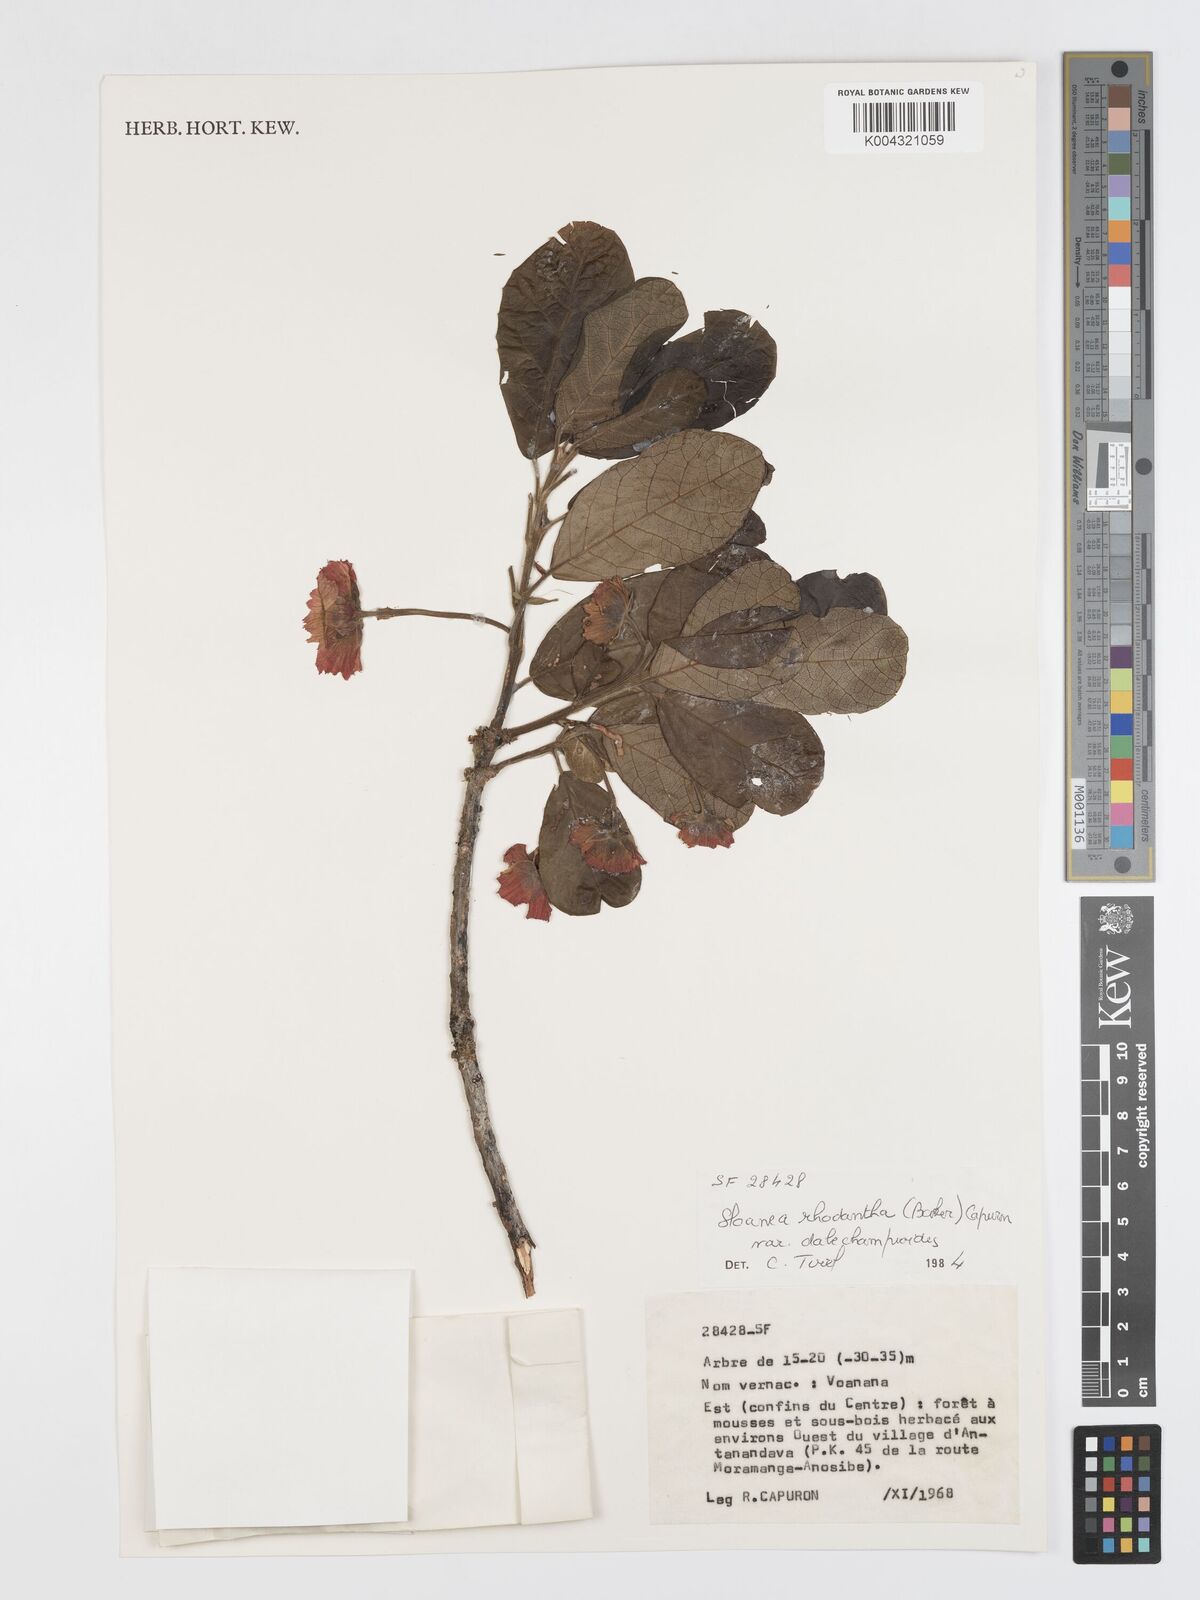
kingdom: Plantae
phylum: Tracheophyta
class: Magnoliopsida
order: Oxalidales
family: Elaeocarpaceae
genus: Sloanea
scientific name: Sloanea rhodantha
